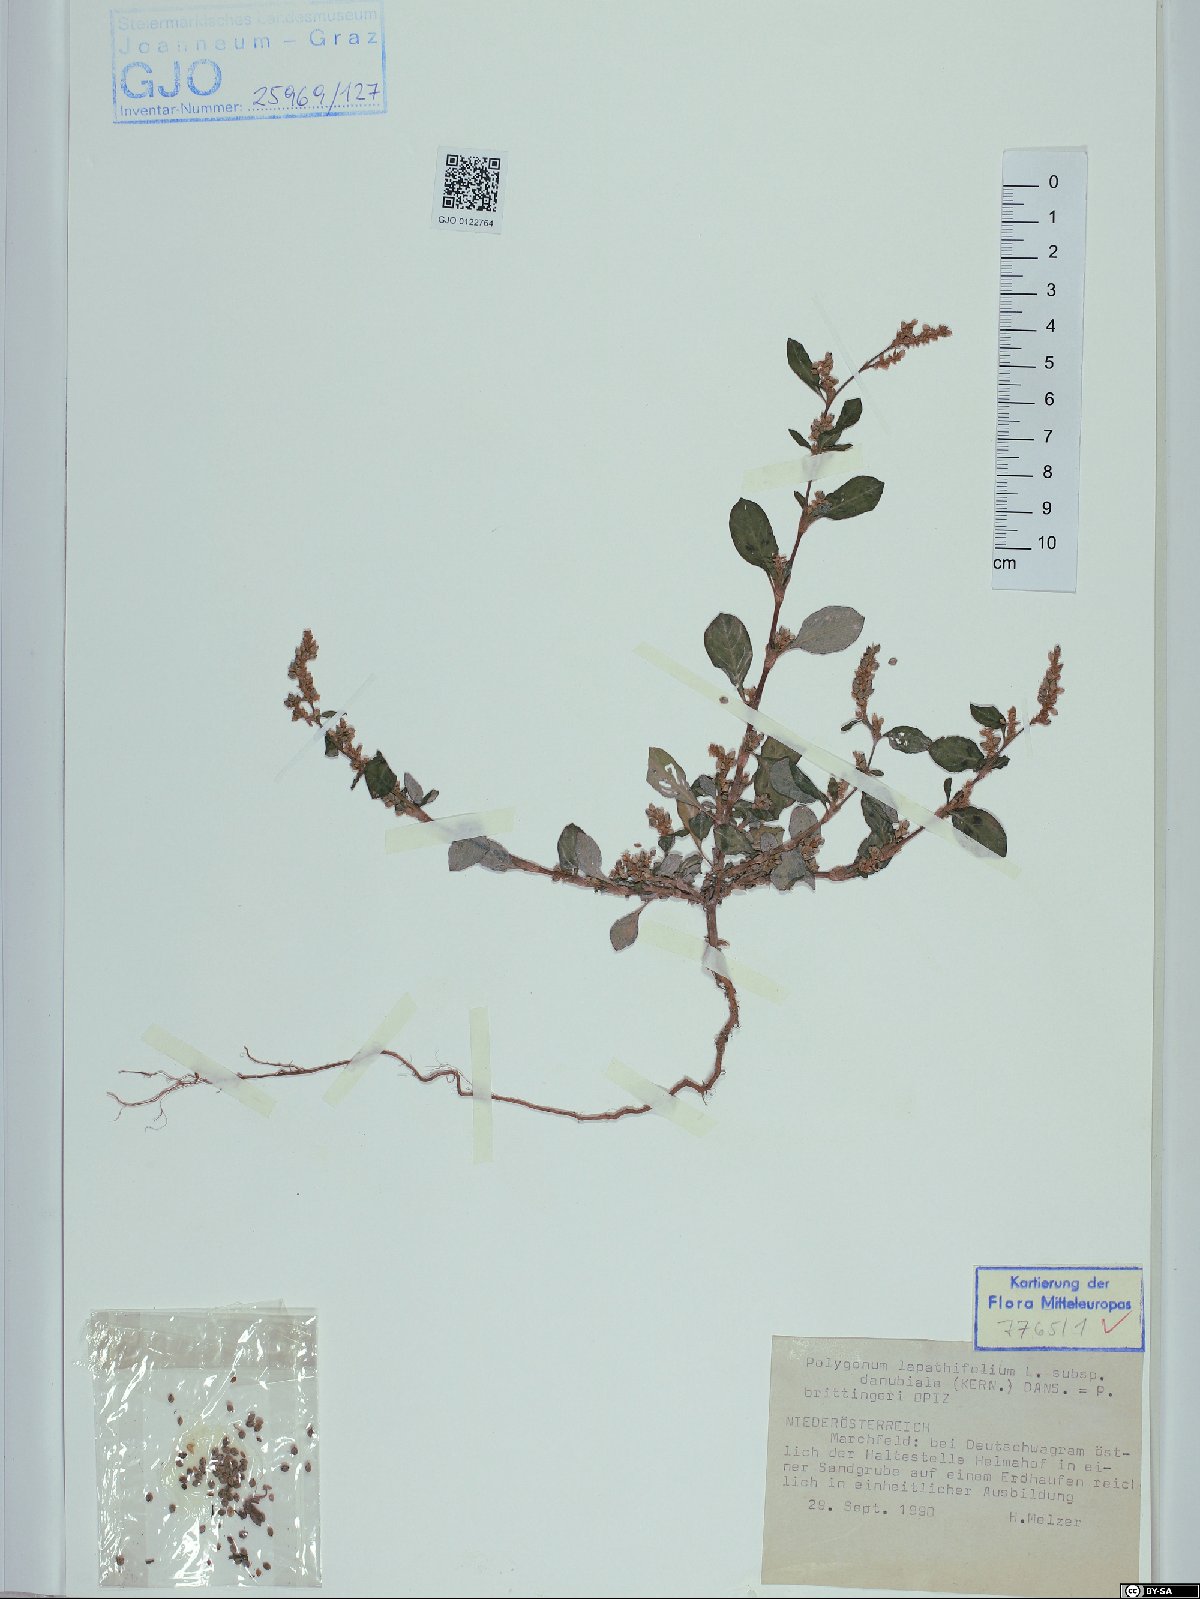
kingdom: Plantae
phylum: Tracheophyta
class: Magnoliopsida
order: Caryophyllales
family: Polygonaceae
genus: Persicaria
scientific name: Persicaria lapathifolia
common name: Curlytop knotweed
